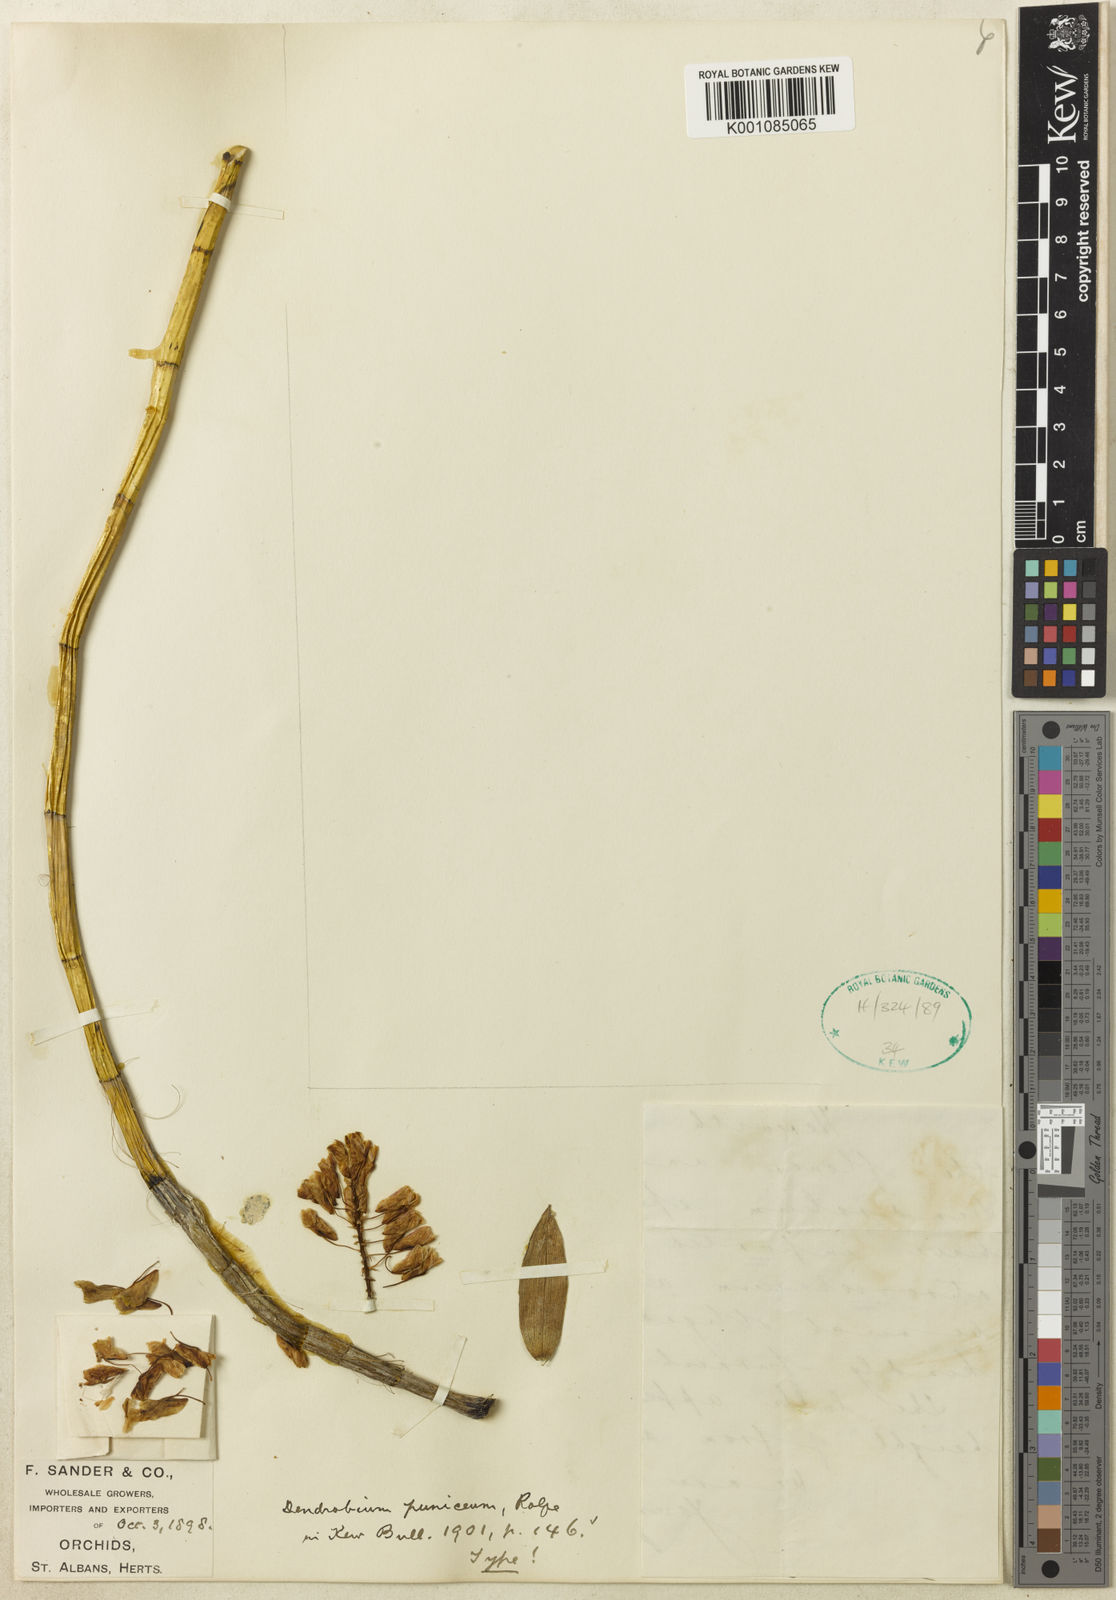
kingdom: Plantae
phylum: Tracheophyta
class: Liliopsida
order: Asparagales
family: Orchidaceae
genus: Dendrobium
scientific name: Dendrobium moirianum
